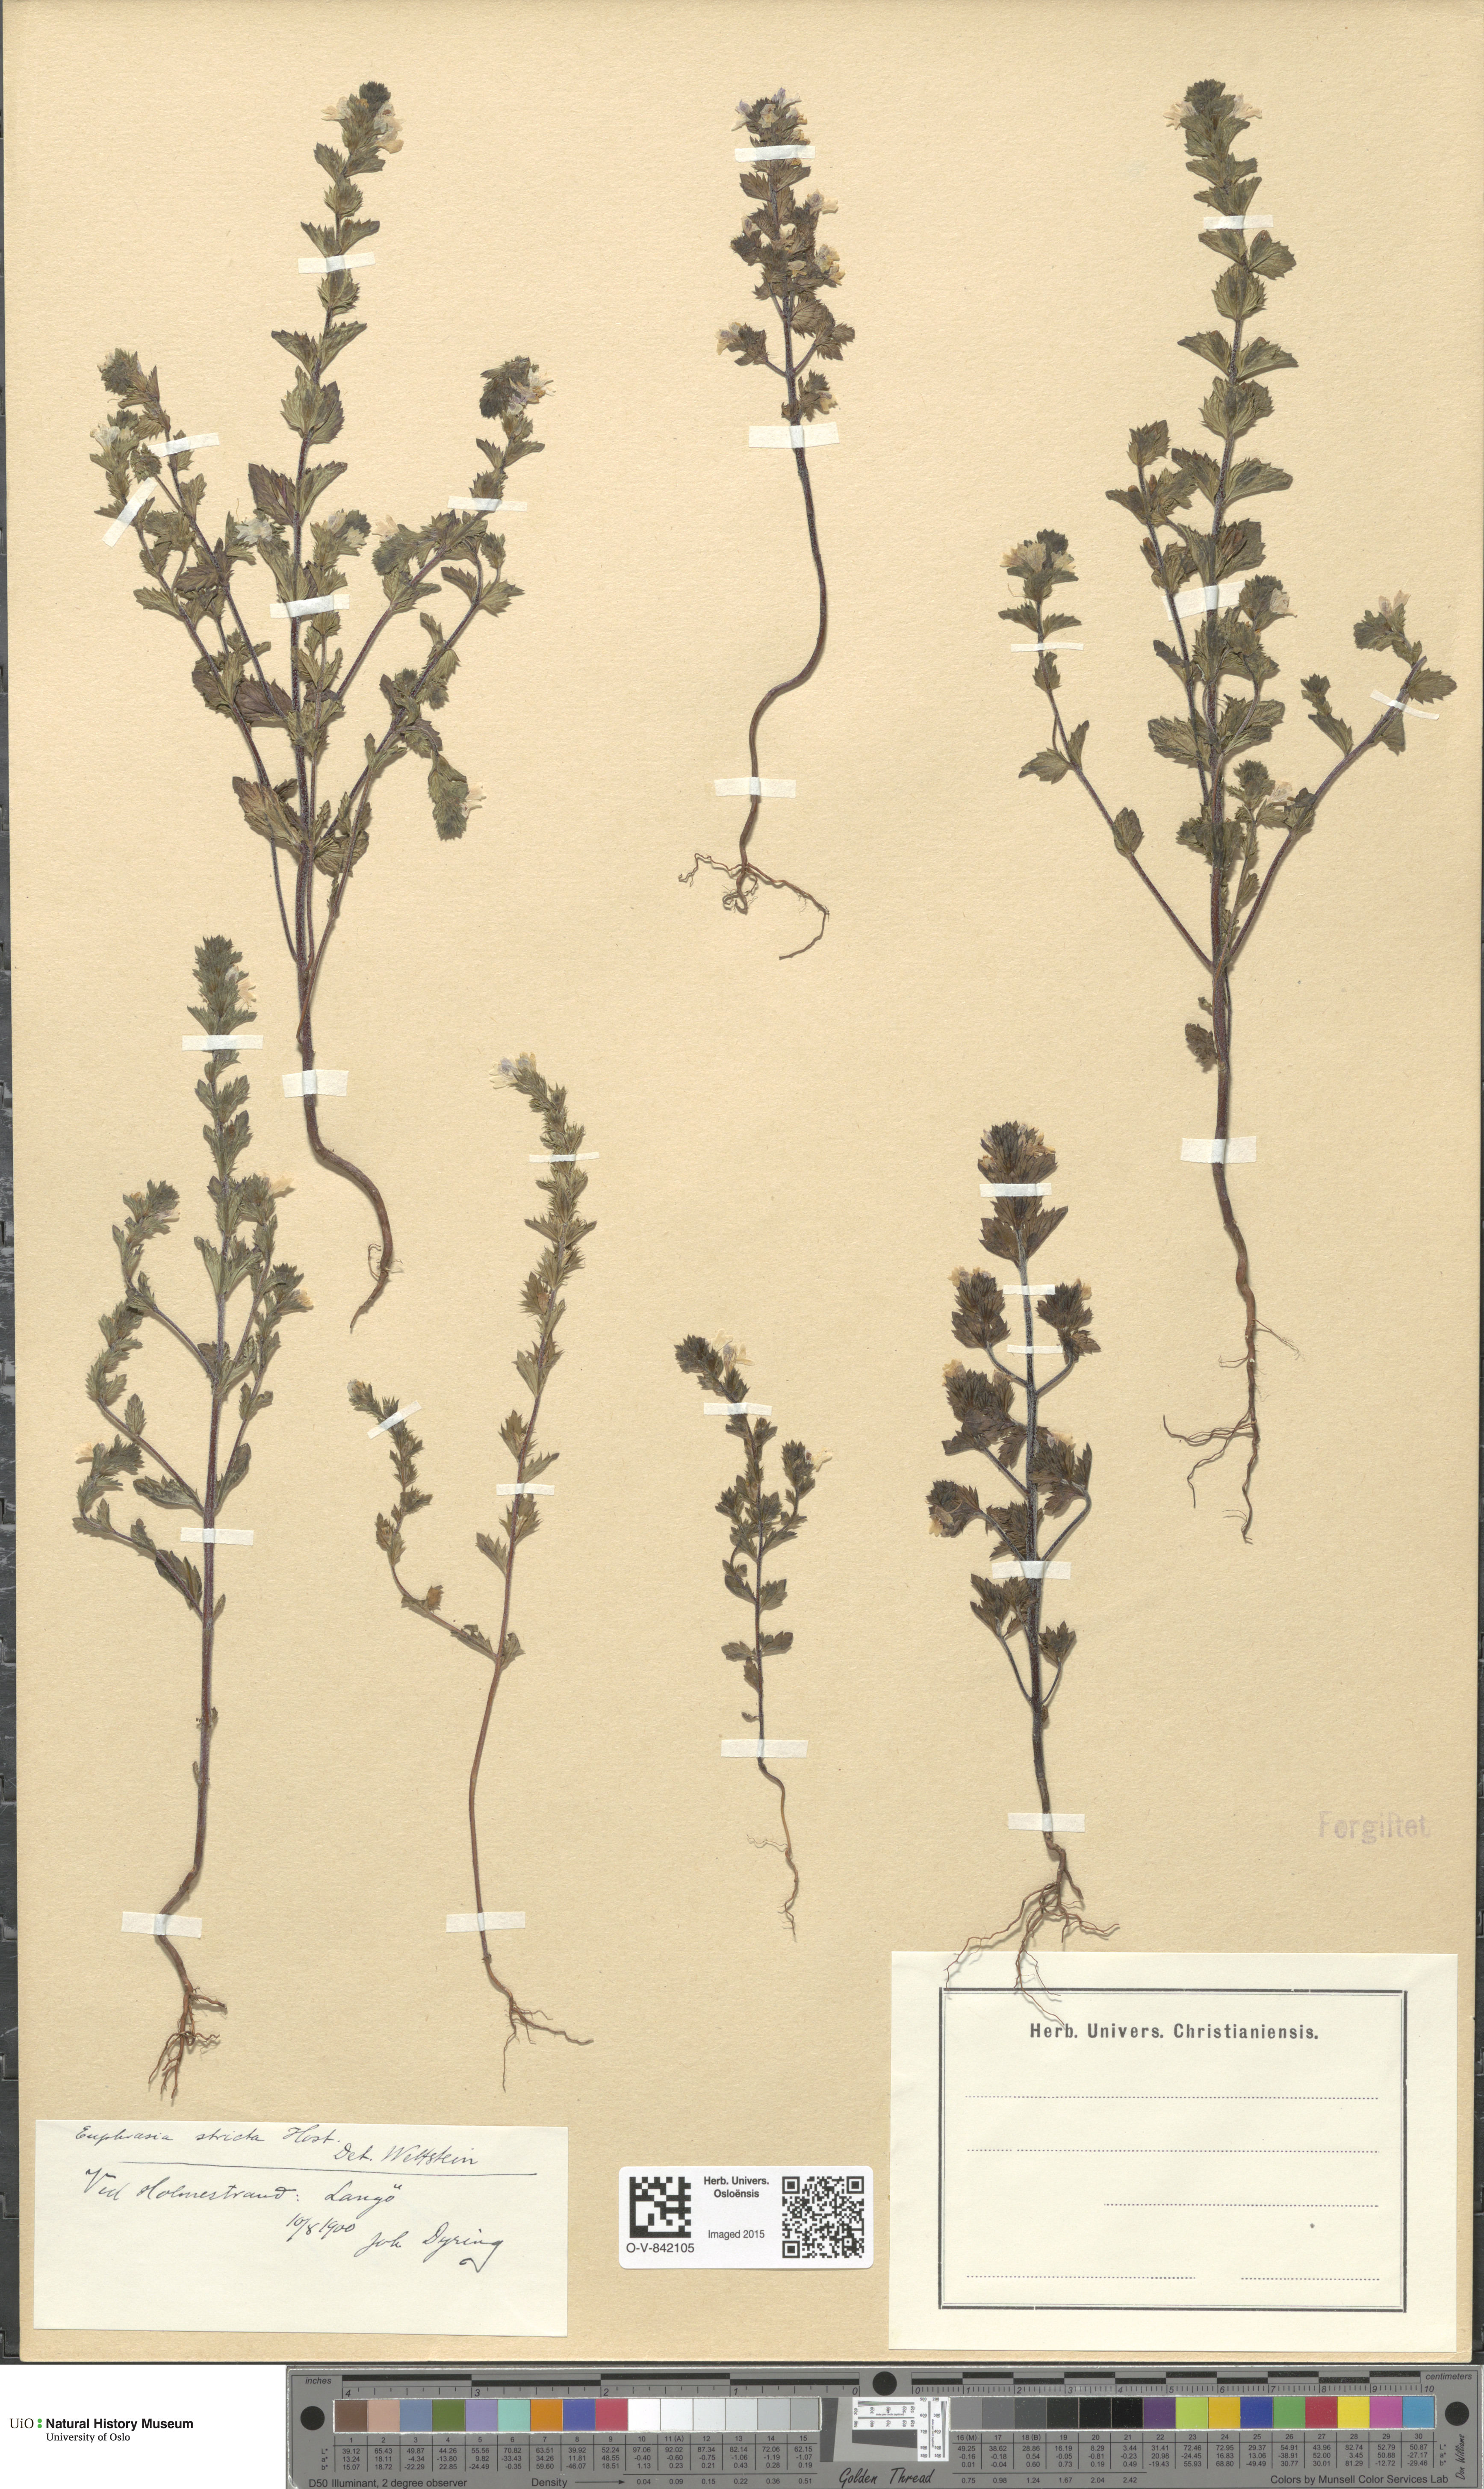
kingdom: Plantae
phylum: Tracheophyta
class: Magnoliopsida
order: Lamiales
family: Orobanchaceae
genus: Euphrasia
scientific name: Euphrasia stricta
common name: Drug eyebright
